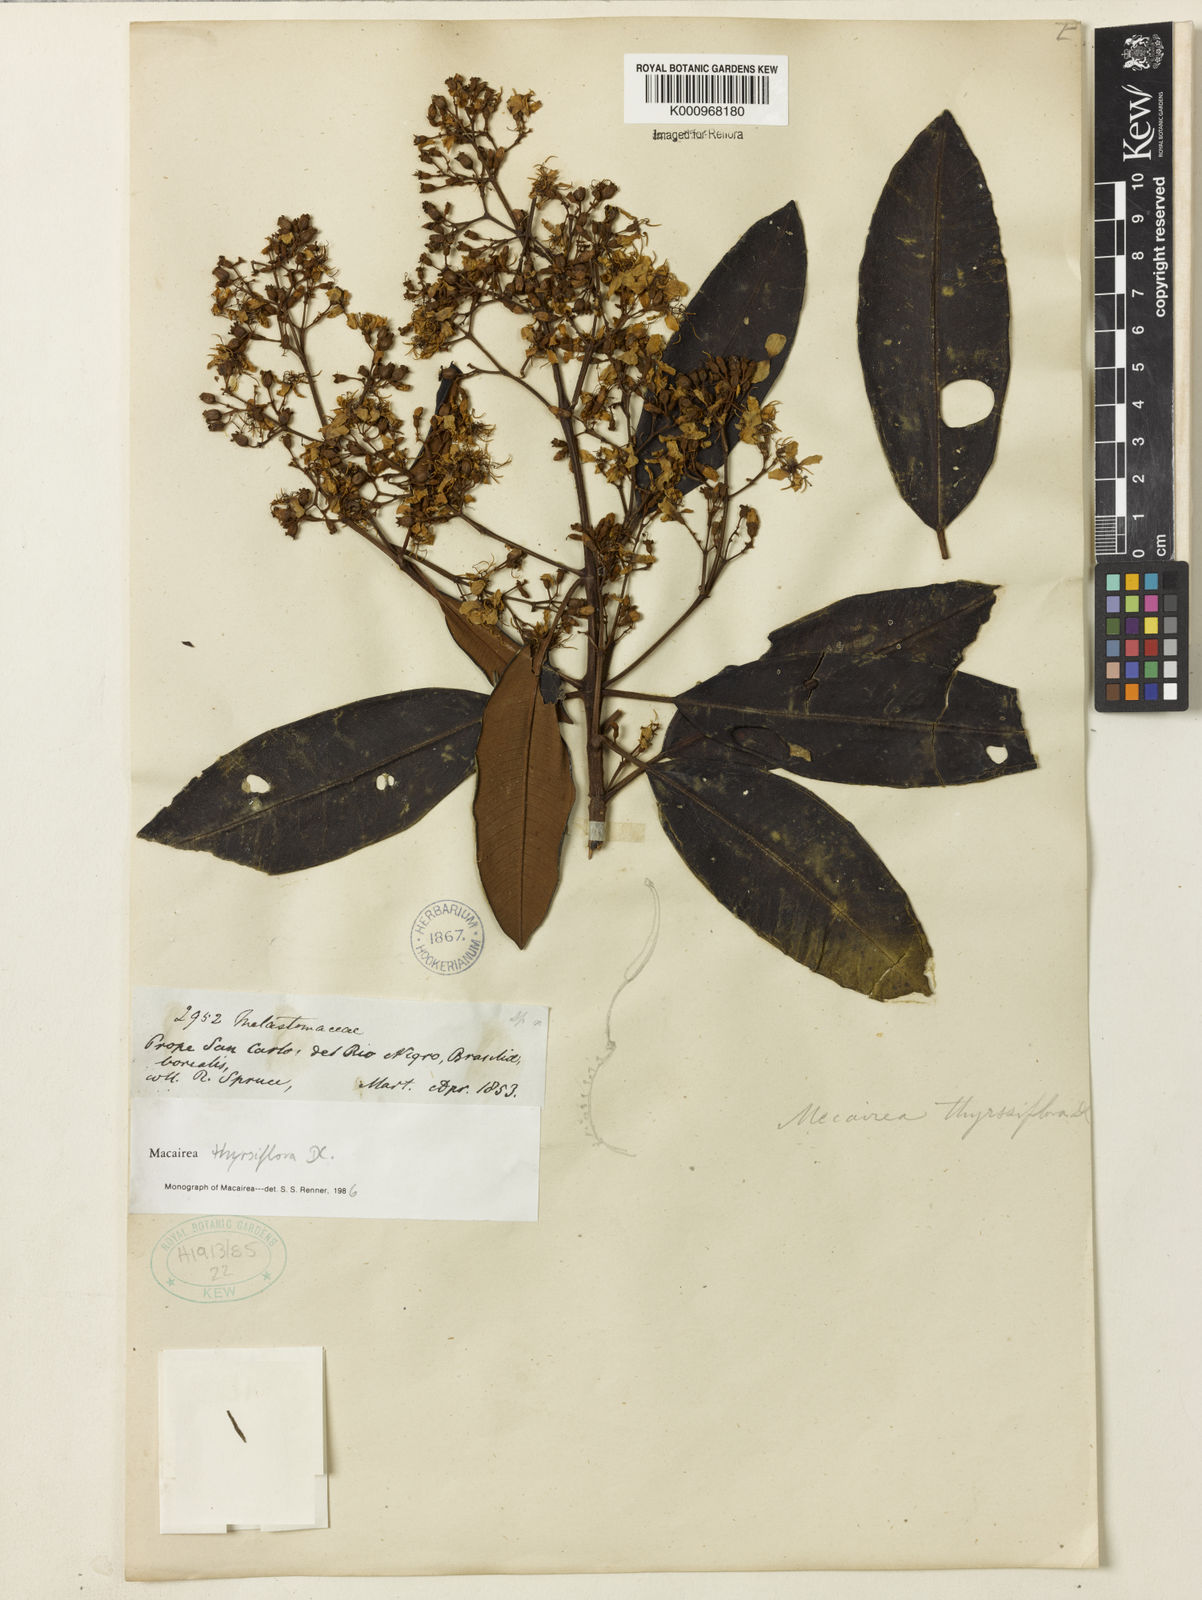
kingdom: Plantae
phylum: Tracheophyta
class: Magnoliopsida
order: Myrtales
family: Melastomataceae
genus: Macairea
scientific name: Macairea thyrsiflora
